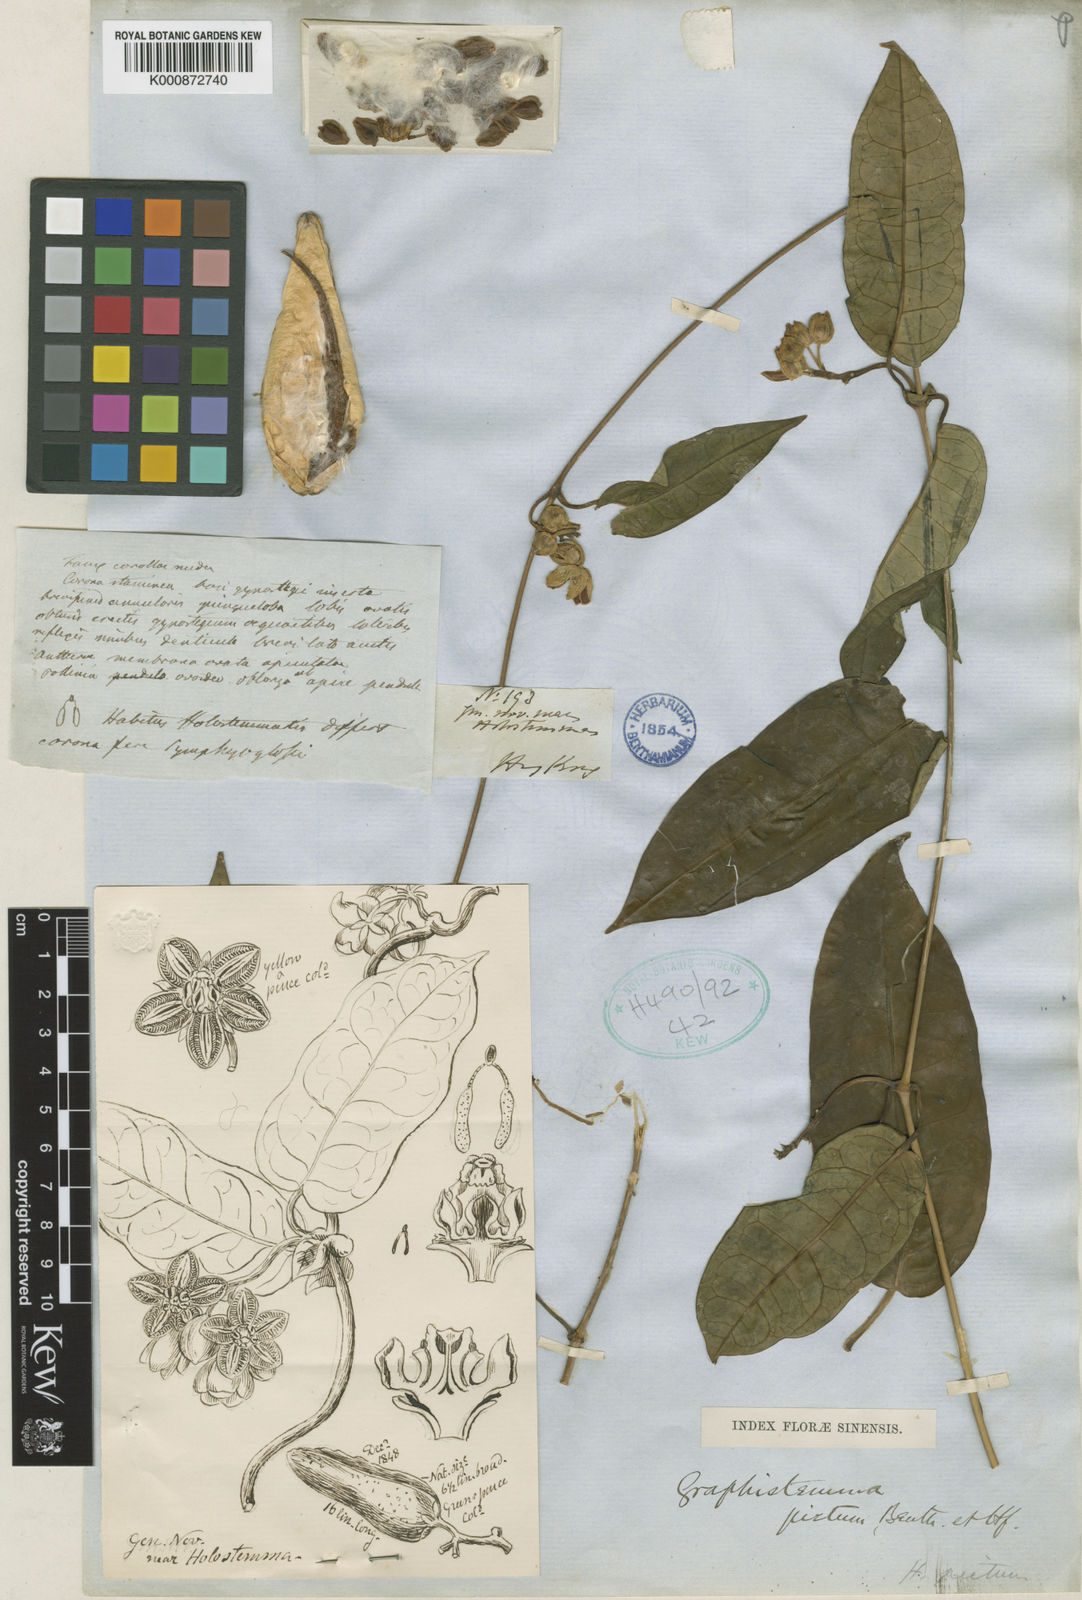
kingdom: Plantae
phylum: Tracheophyta
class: Magnoliopsida
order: Gentianales
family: Apocynaceae
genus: Cynanchum
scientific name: Cynanchum graphistemmatoides
